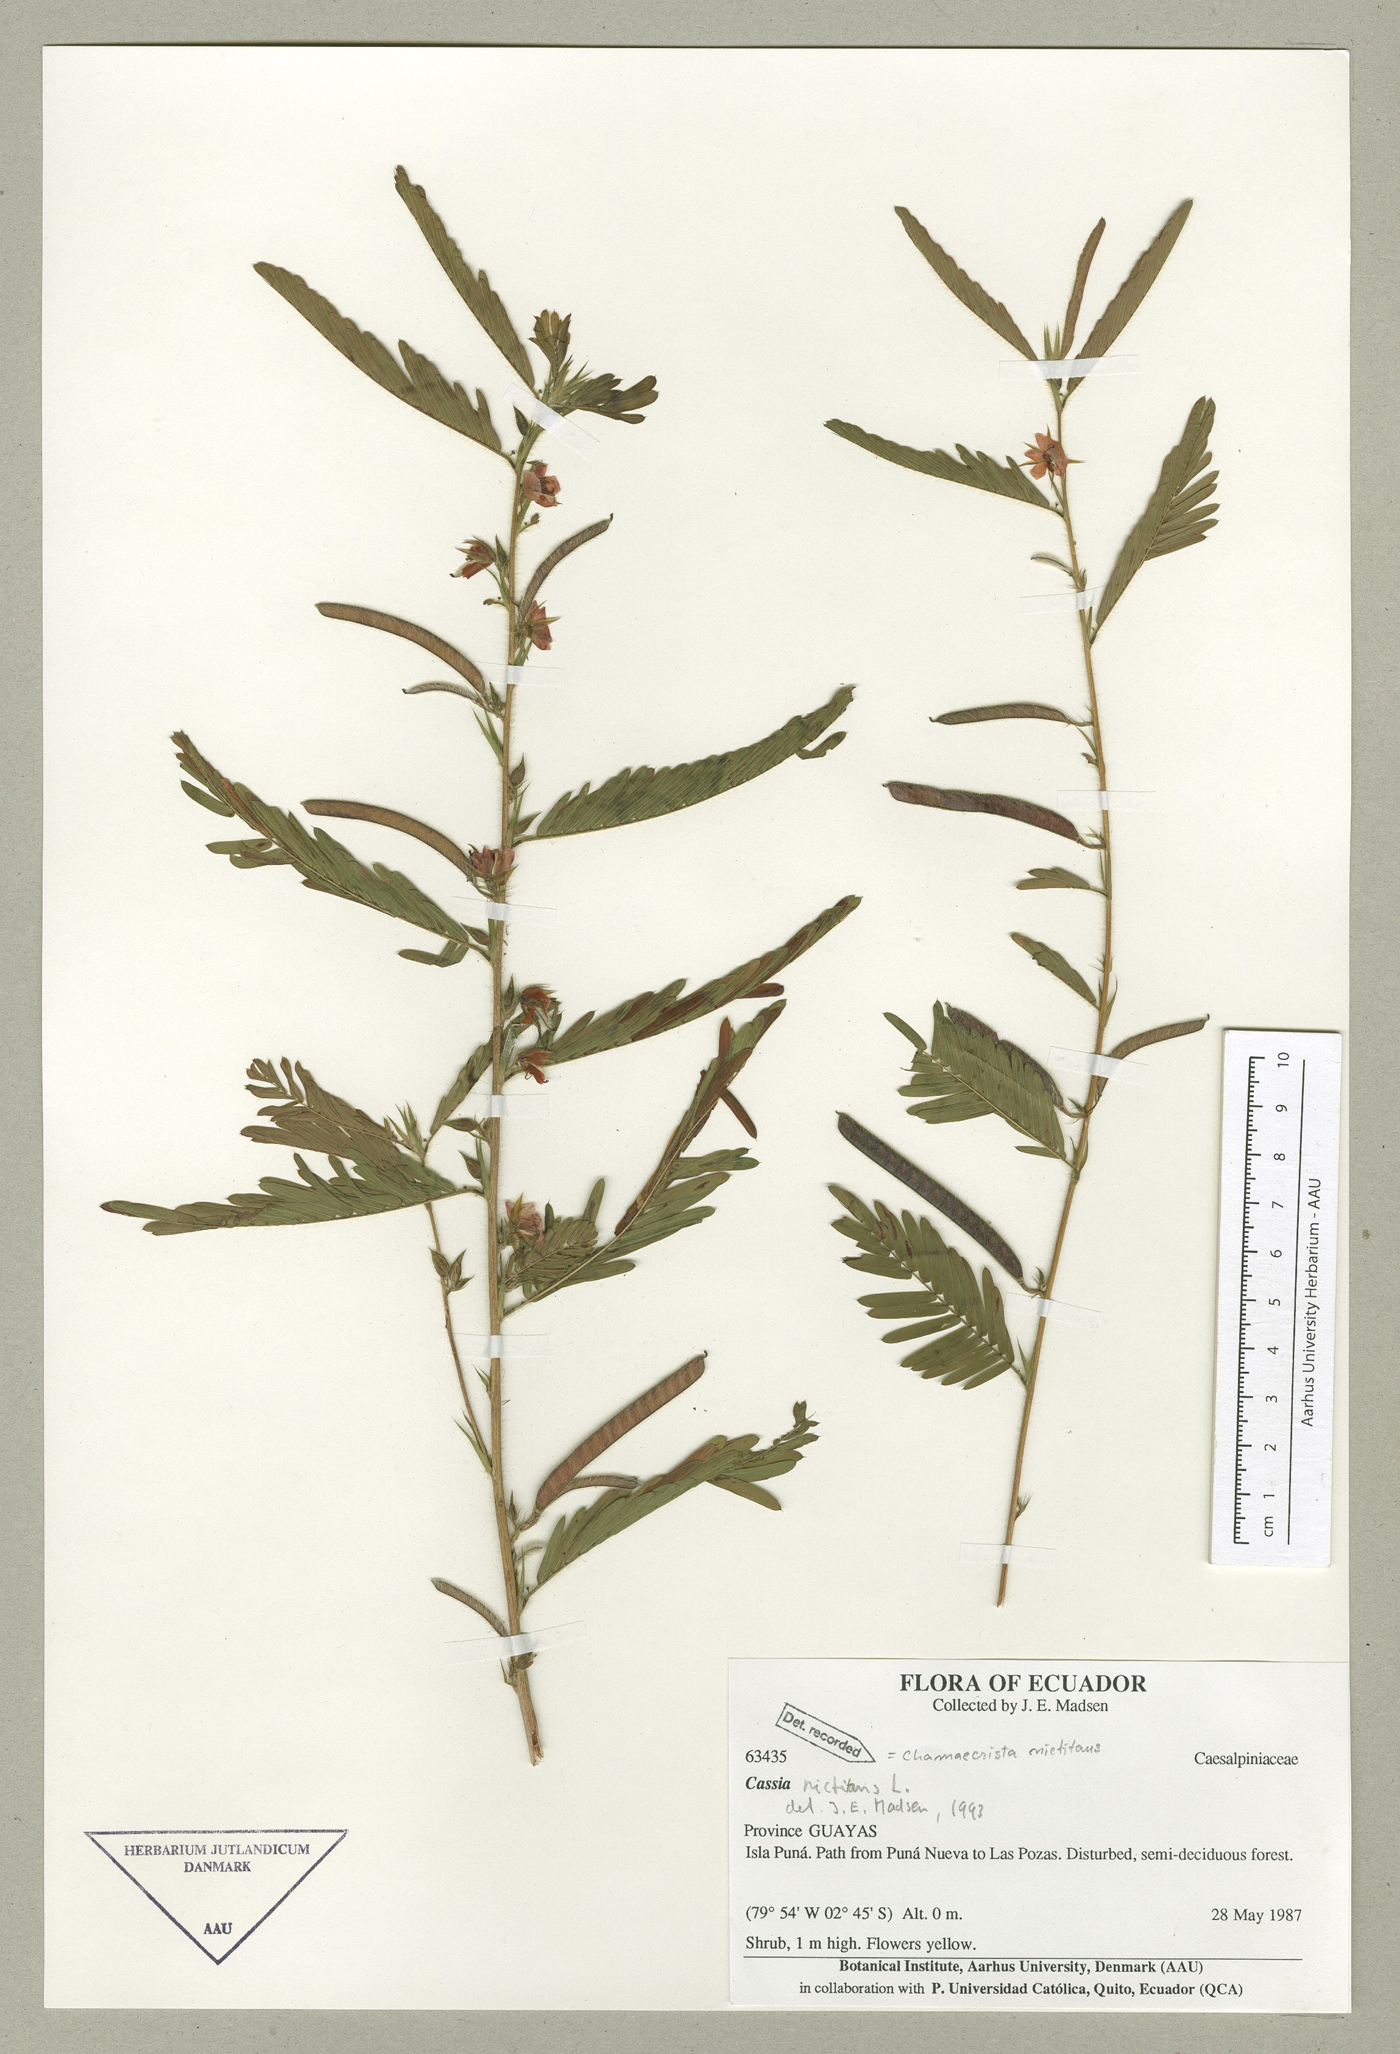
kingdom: Plantae
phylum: Tracheophyta
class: Magnoliopsida
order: Fabales
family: Fabaceae
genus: Chamaecrista
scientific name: Chamaecrista nictitans
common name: Sensitive cassia
